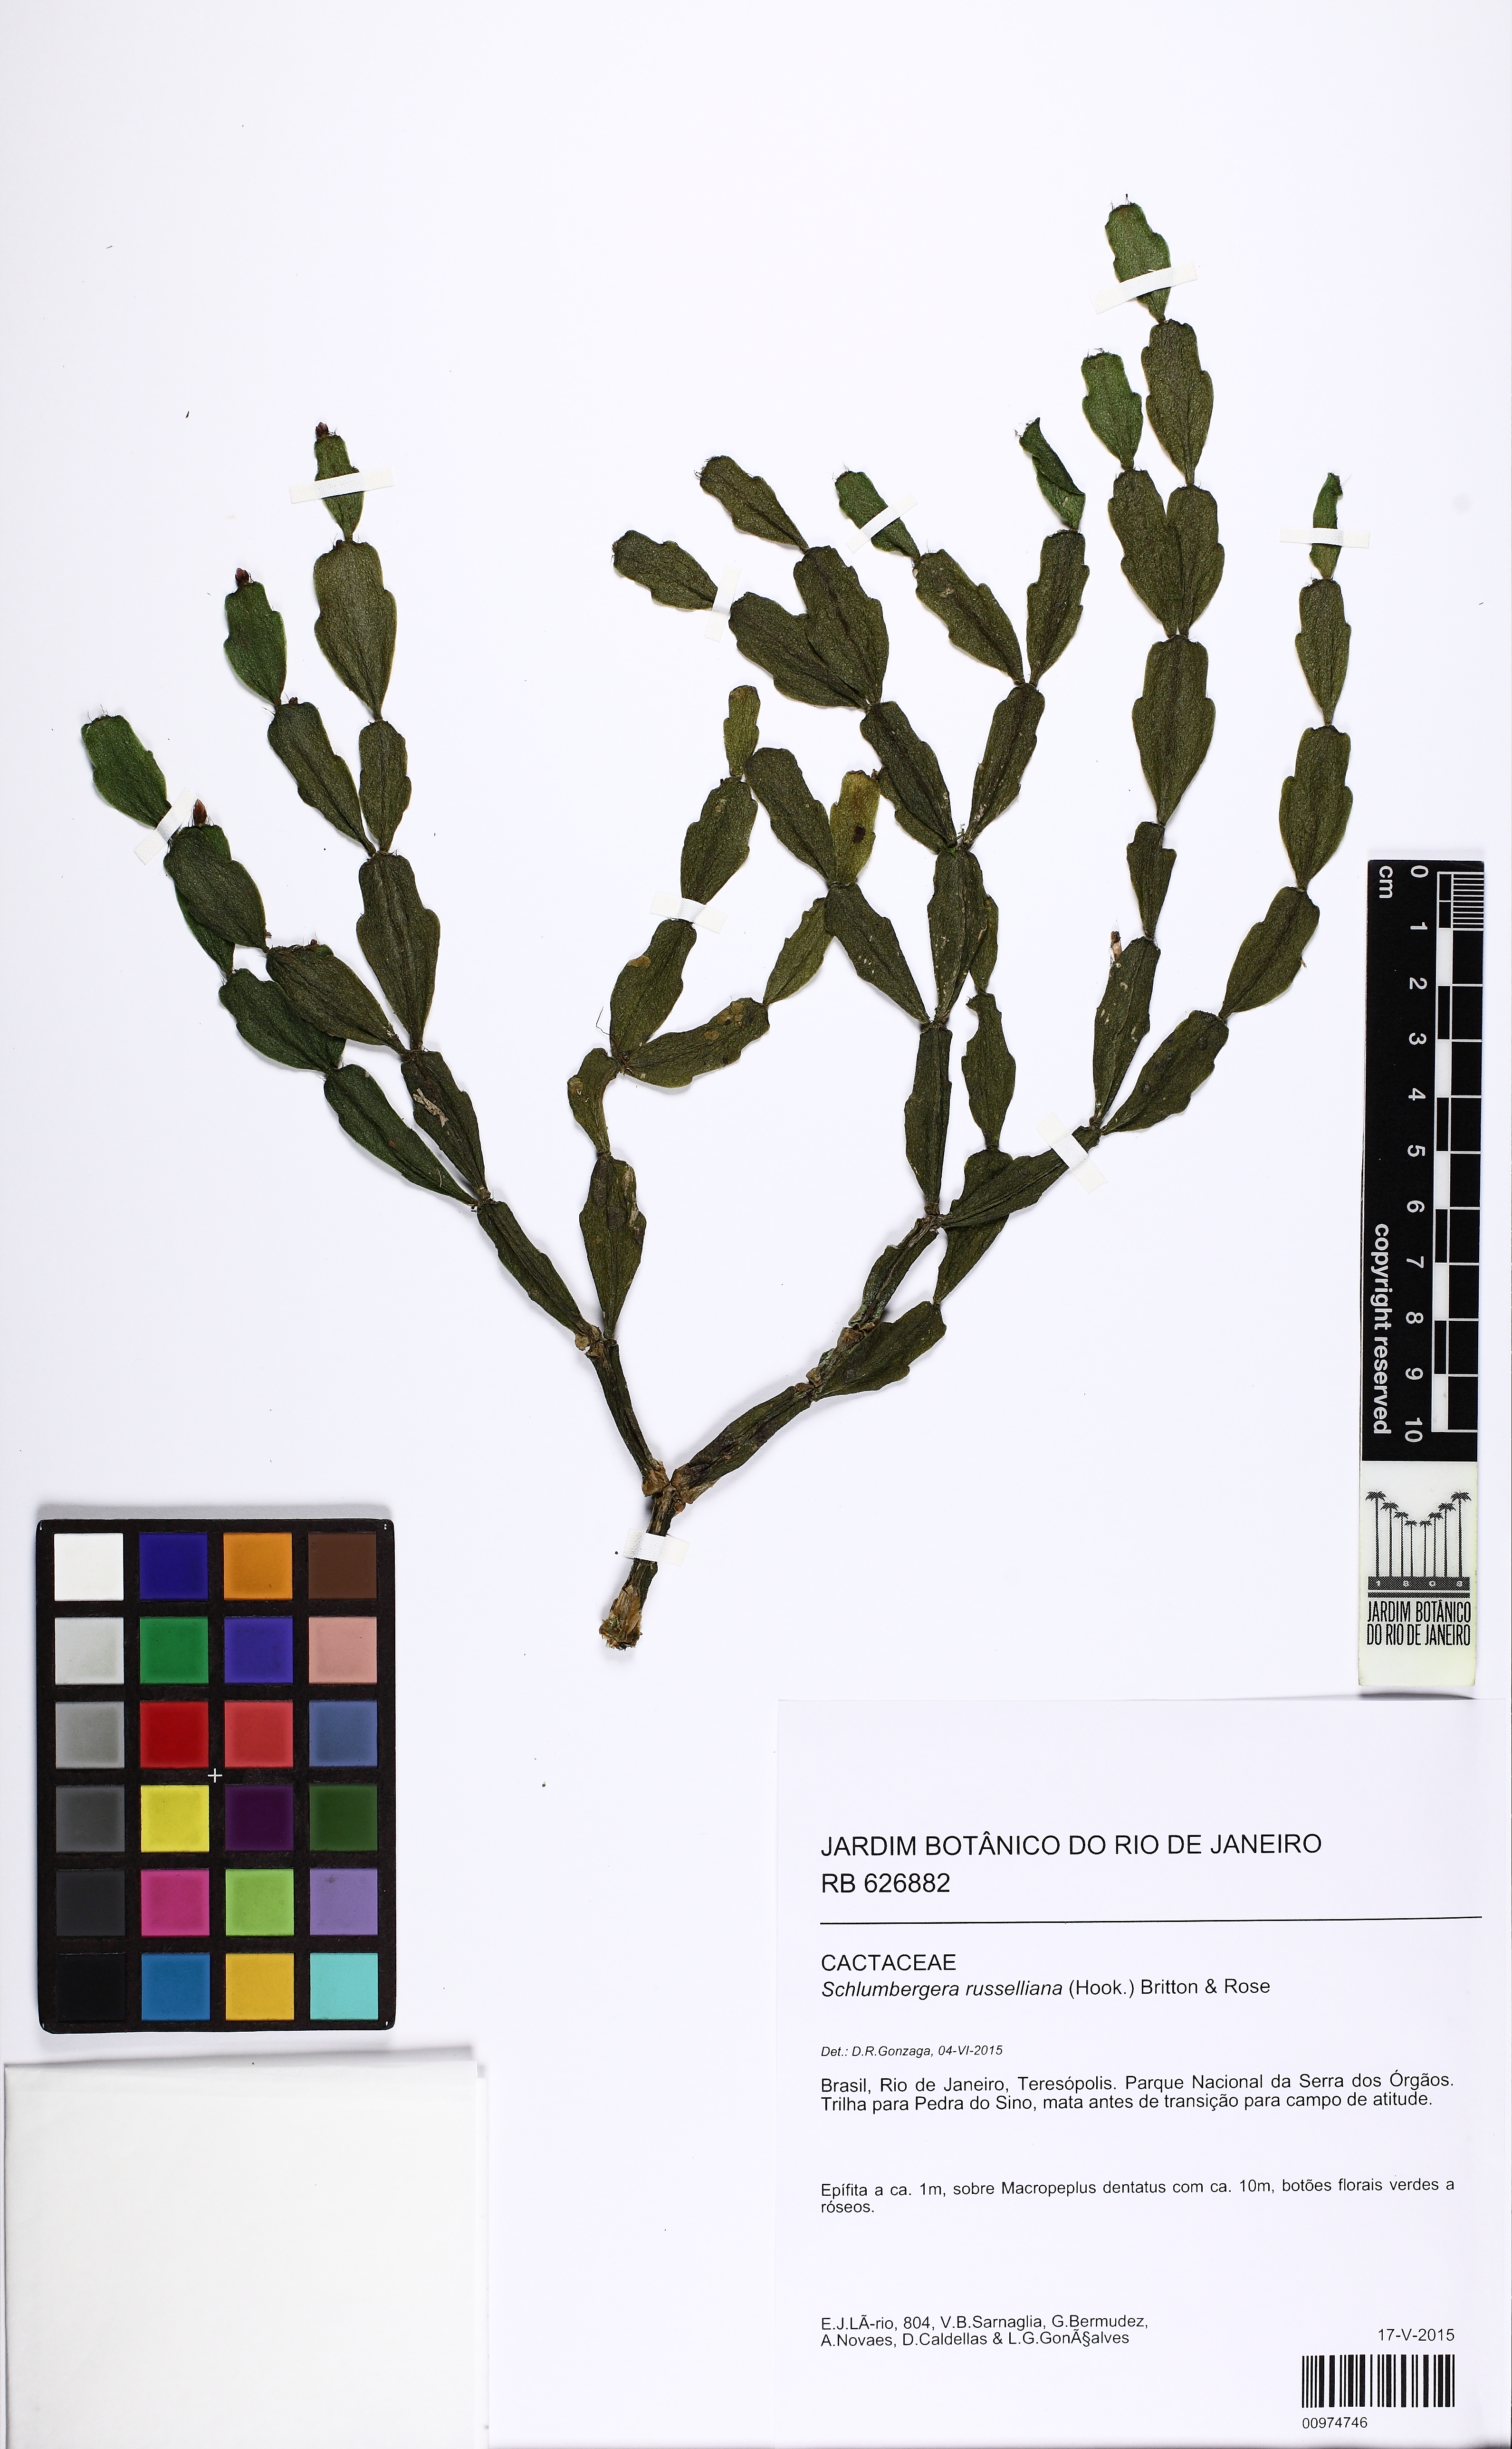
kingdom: Plantae
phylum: Tracheophyta
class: Magnoliopsida
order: Caryophyllales
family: Cactaceae
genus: Schlumbergera
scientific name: Schlumbergera russeliana
